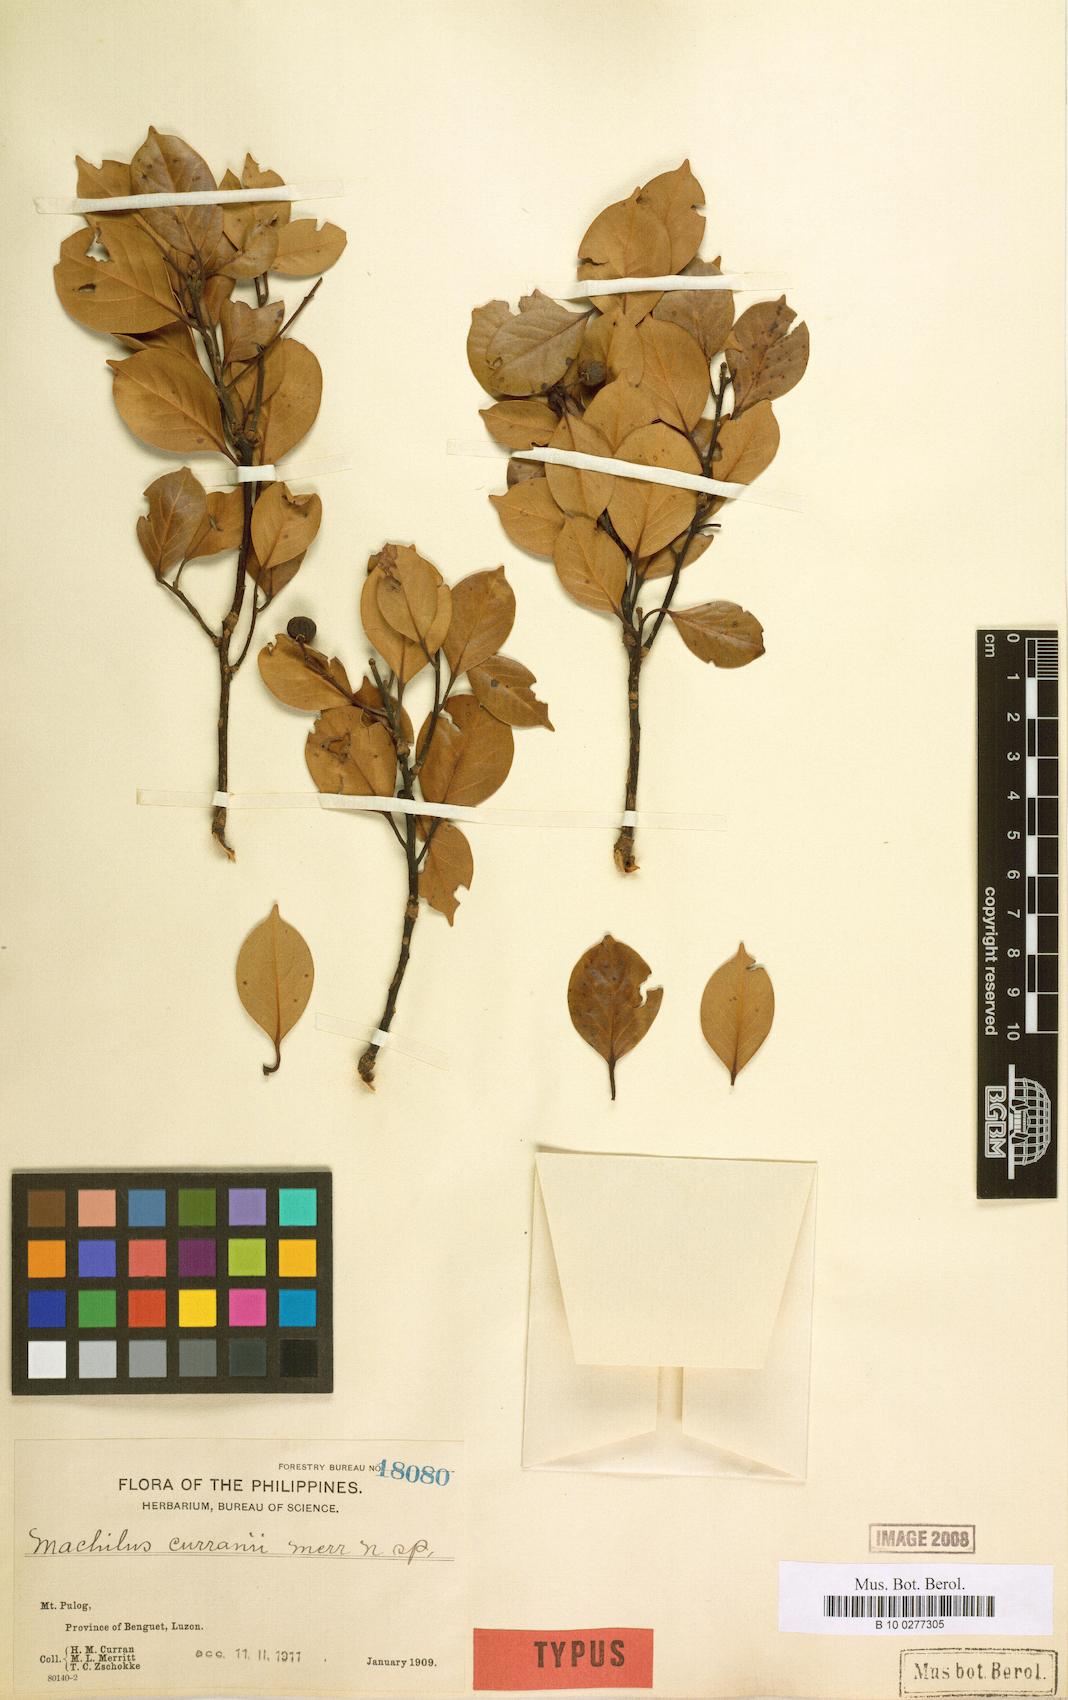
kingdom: Plantae
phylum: Tracheophyta
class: Magnoliopsida
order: Laurales
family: Lauraceae
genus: Machilus
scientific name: Machilus curranii
